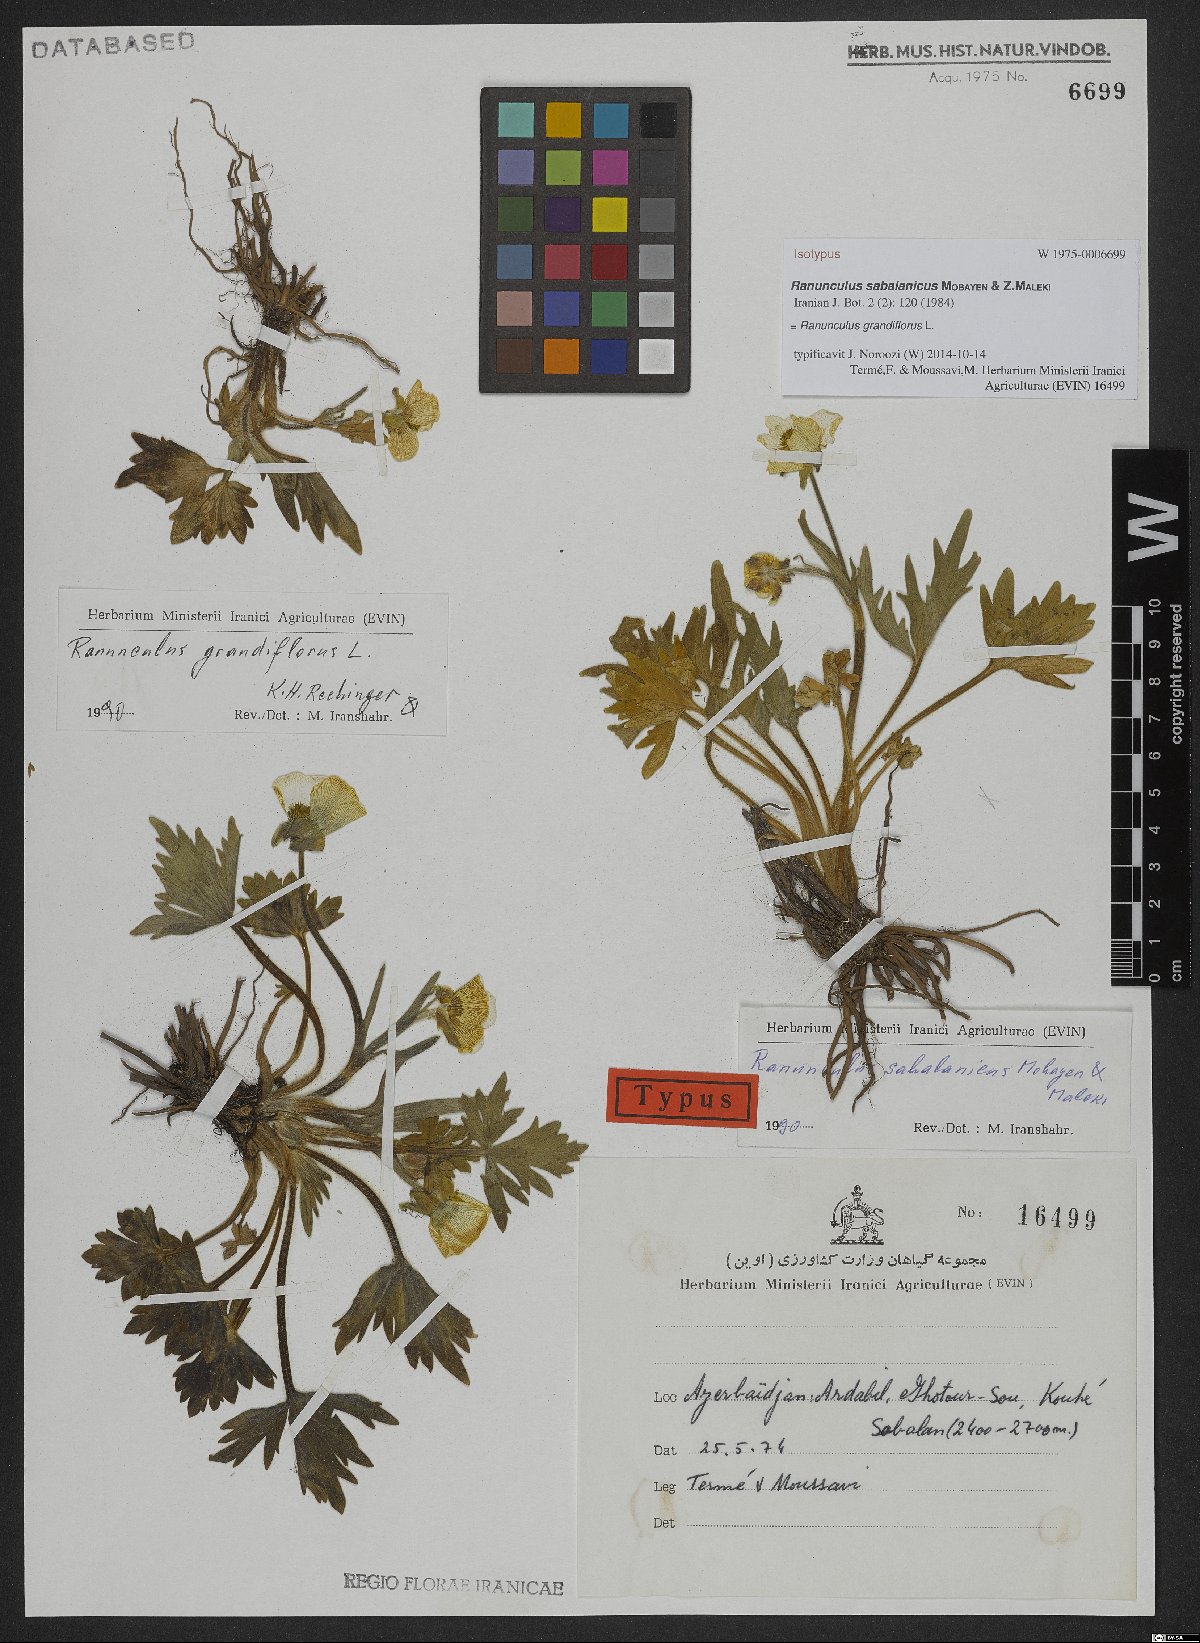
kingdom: Plantae
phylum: Tracheophyta
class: Magnoliopsida
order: Ranunculales
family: Ranunculaceae
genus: Ranunculus
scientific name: Ranunculus grandiflorus
